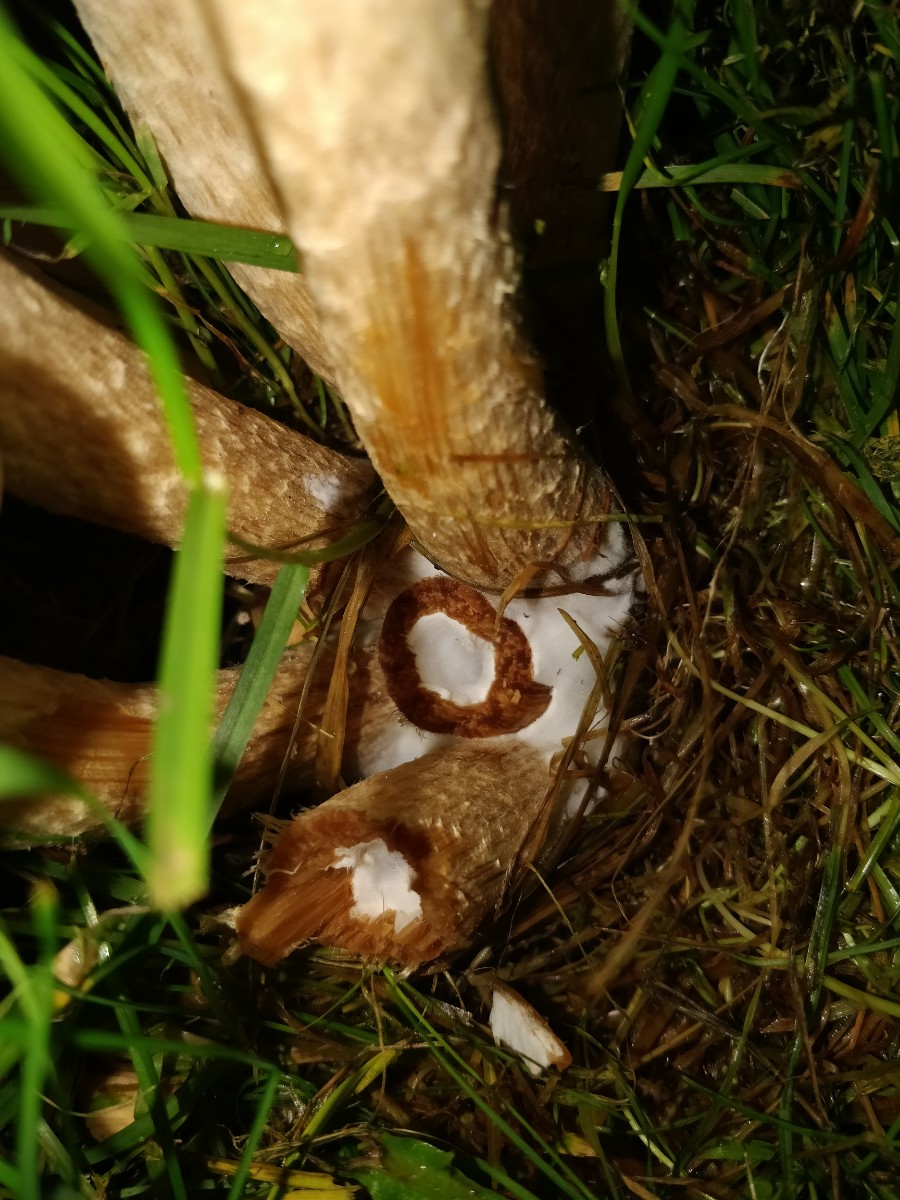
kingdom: Fungi
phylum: Basidiomycota
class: Agaricomycetes
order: Agaricales
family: Psathyrellaceae
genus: Lacrymaria
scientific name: Lacrymaria lacrymabunda
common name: grædende mørkhat
